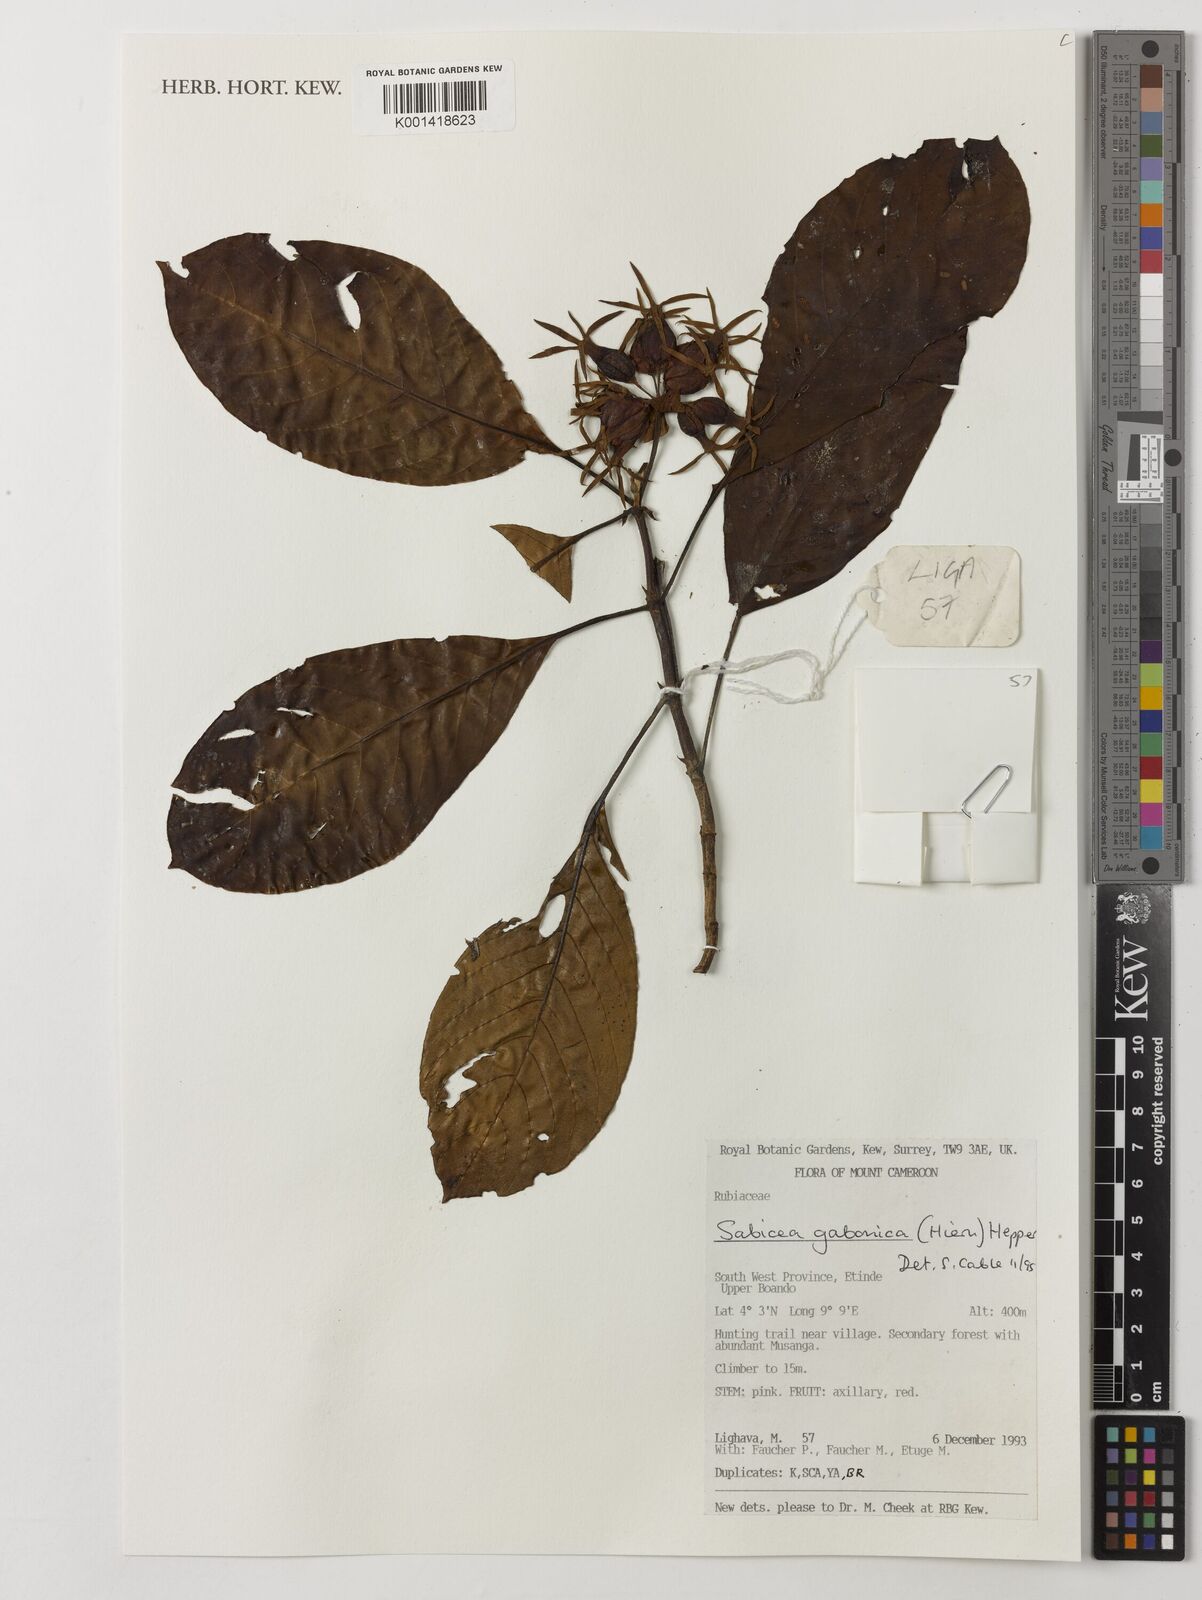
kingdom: Plantae
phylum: Tracheophyta
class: Magnoliopsida
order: Gentianales
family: Rubiaceae
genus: Sabicea
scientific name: Sabicea gabonica
